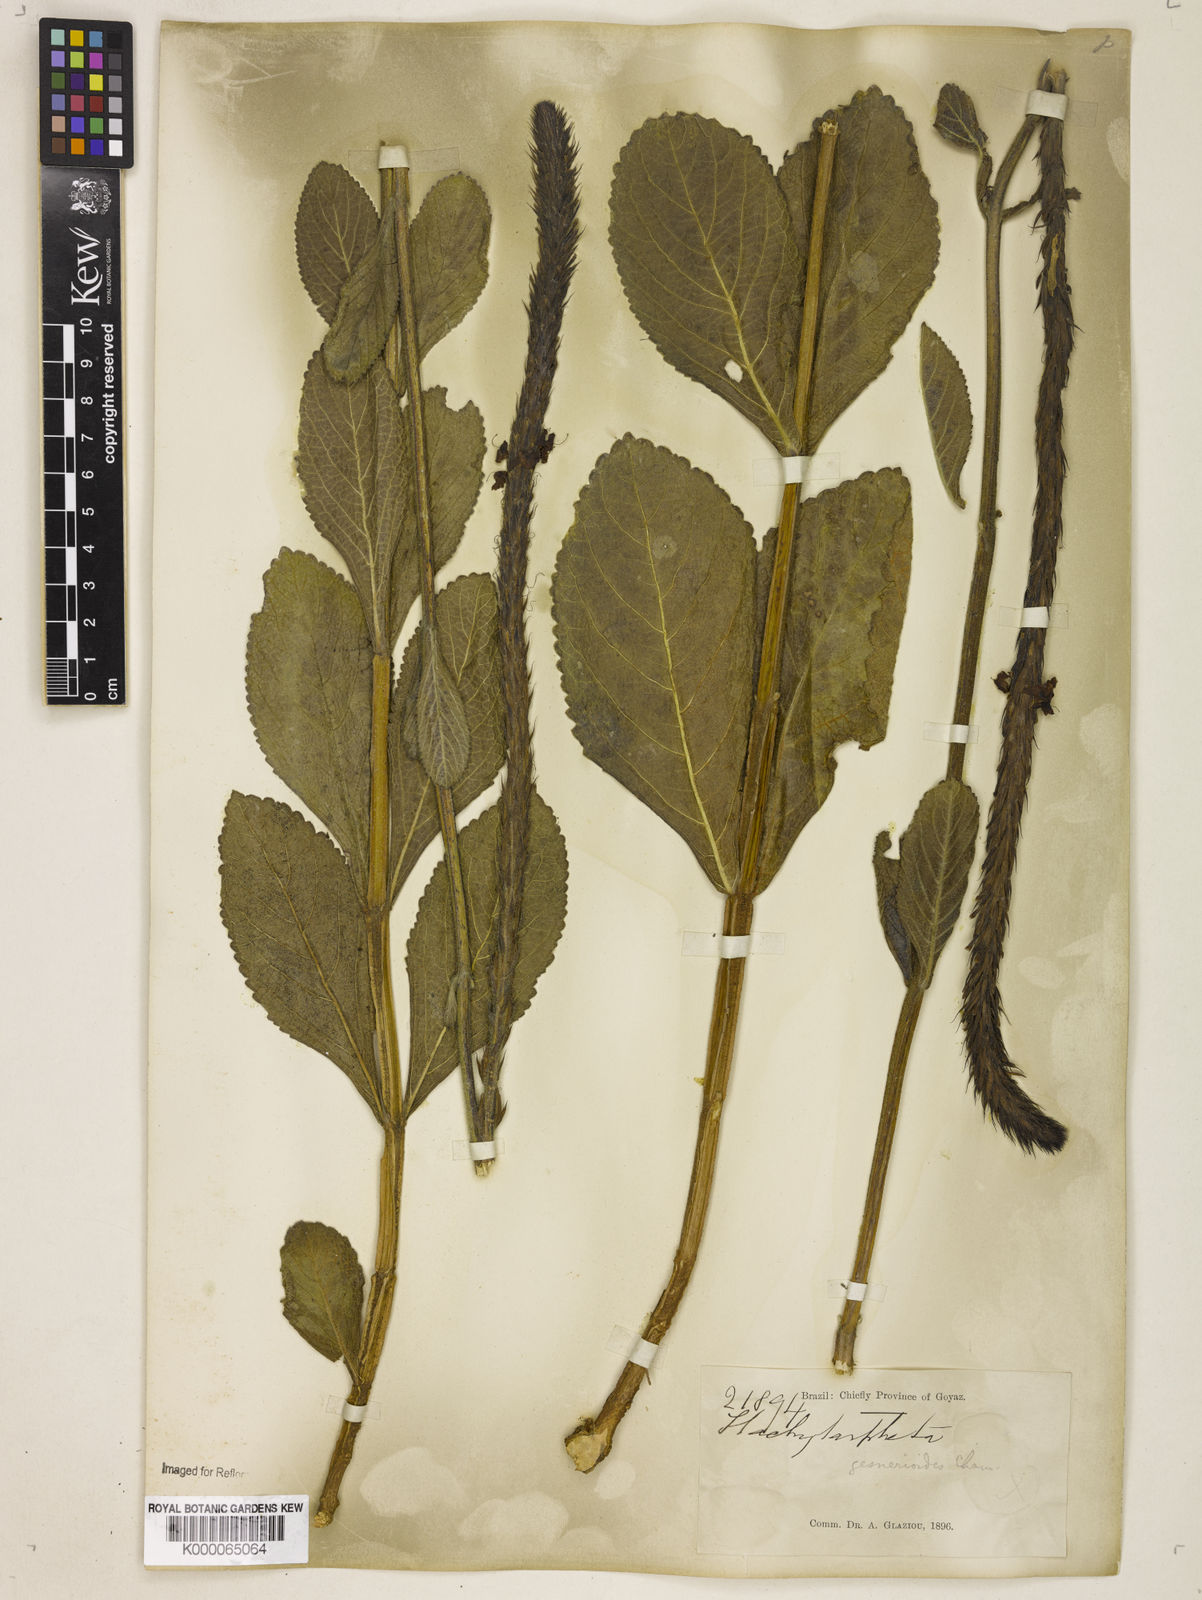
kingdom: Plantae
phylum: Tracheophyta
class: Magnoliopsida
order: Lamiales
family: Verbenaceae
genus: Stachytarpheta
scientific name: Stachytarpheta gesnerioides
